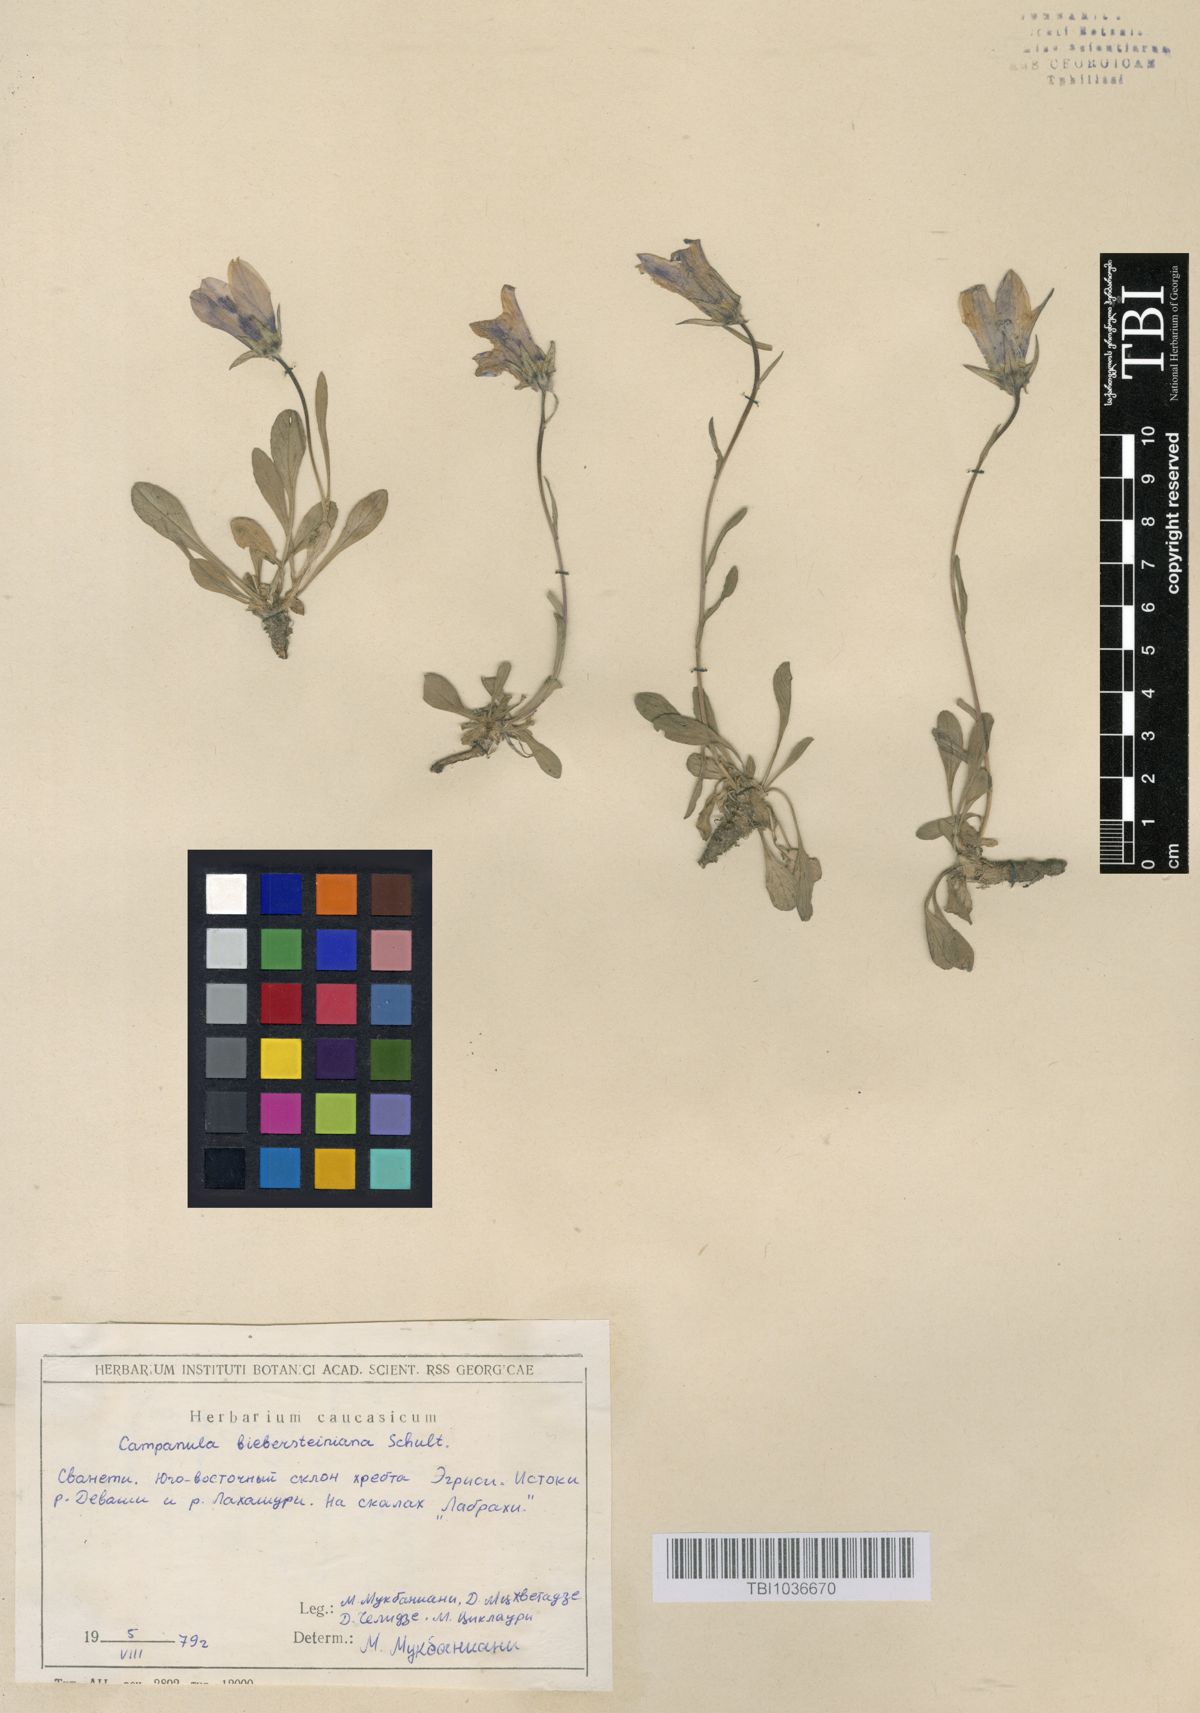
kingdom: Plantae
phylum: Tracheophyta
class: Magnoliopsida
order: Asterales
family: Campanulaceae
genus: Campanula
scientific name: Campanula tridentata
